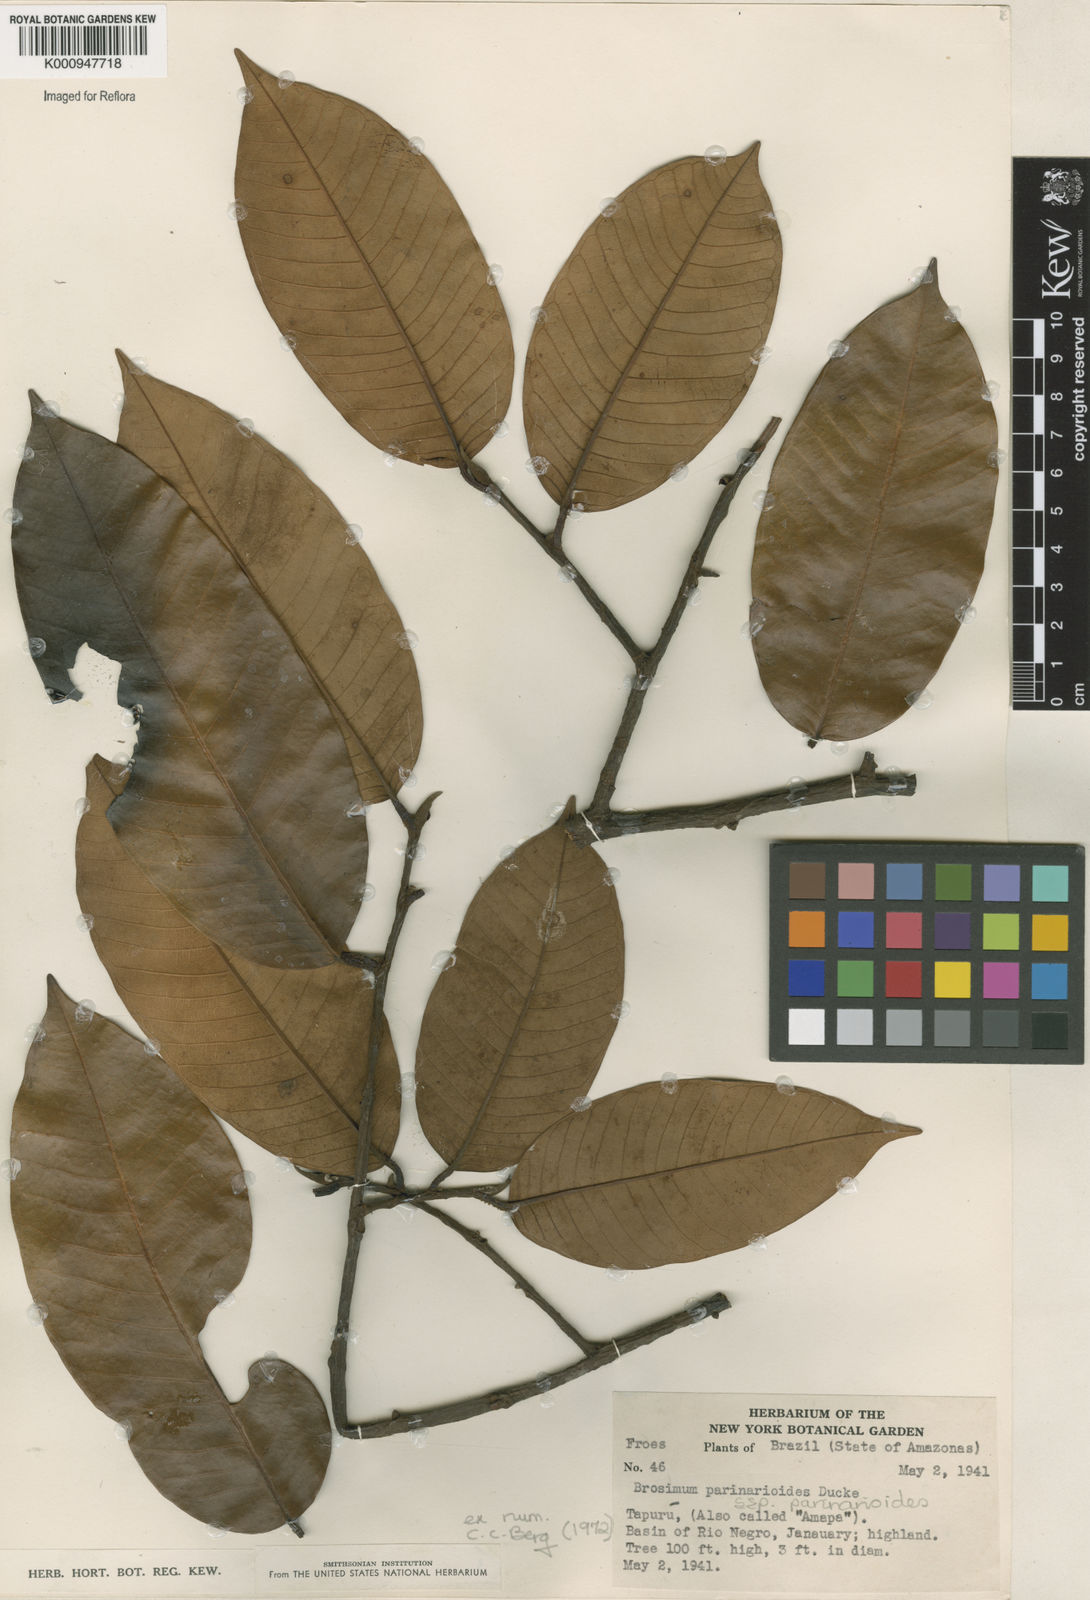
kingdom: Plantae
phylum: Tracheophyta
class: Magnoliopsida
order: Rosales
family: Moraceae
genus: Brosimum
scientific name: Brosimum parinarioides
